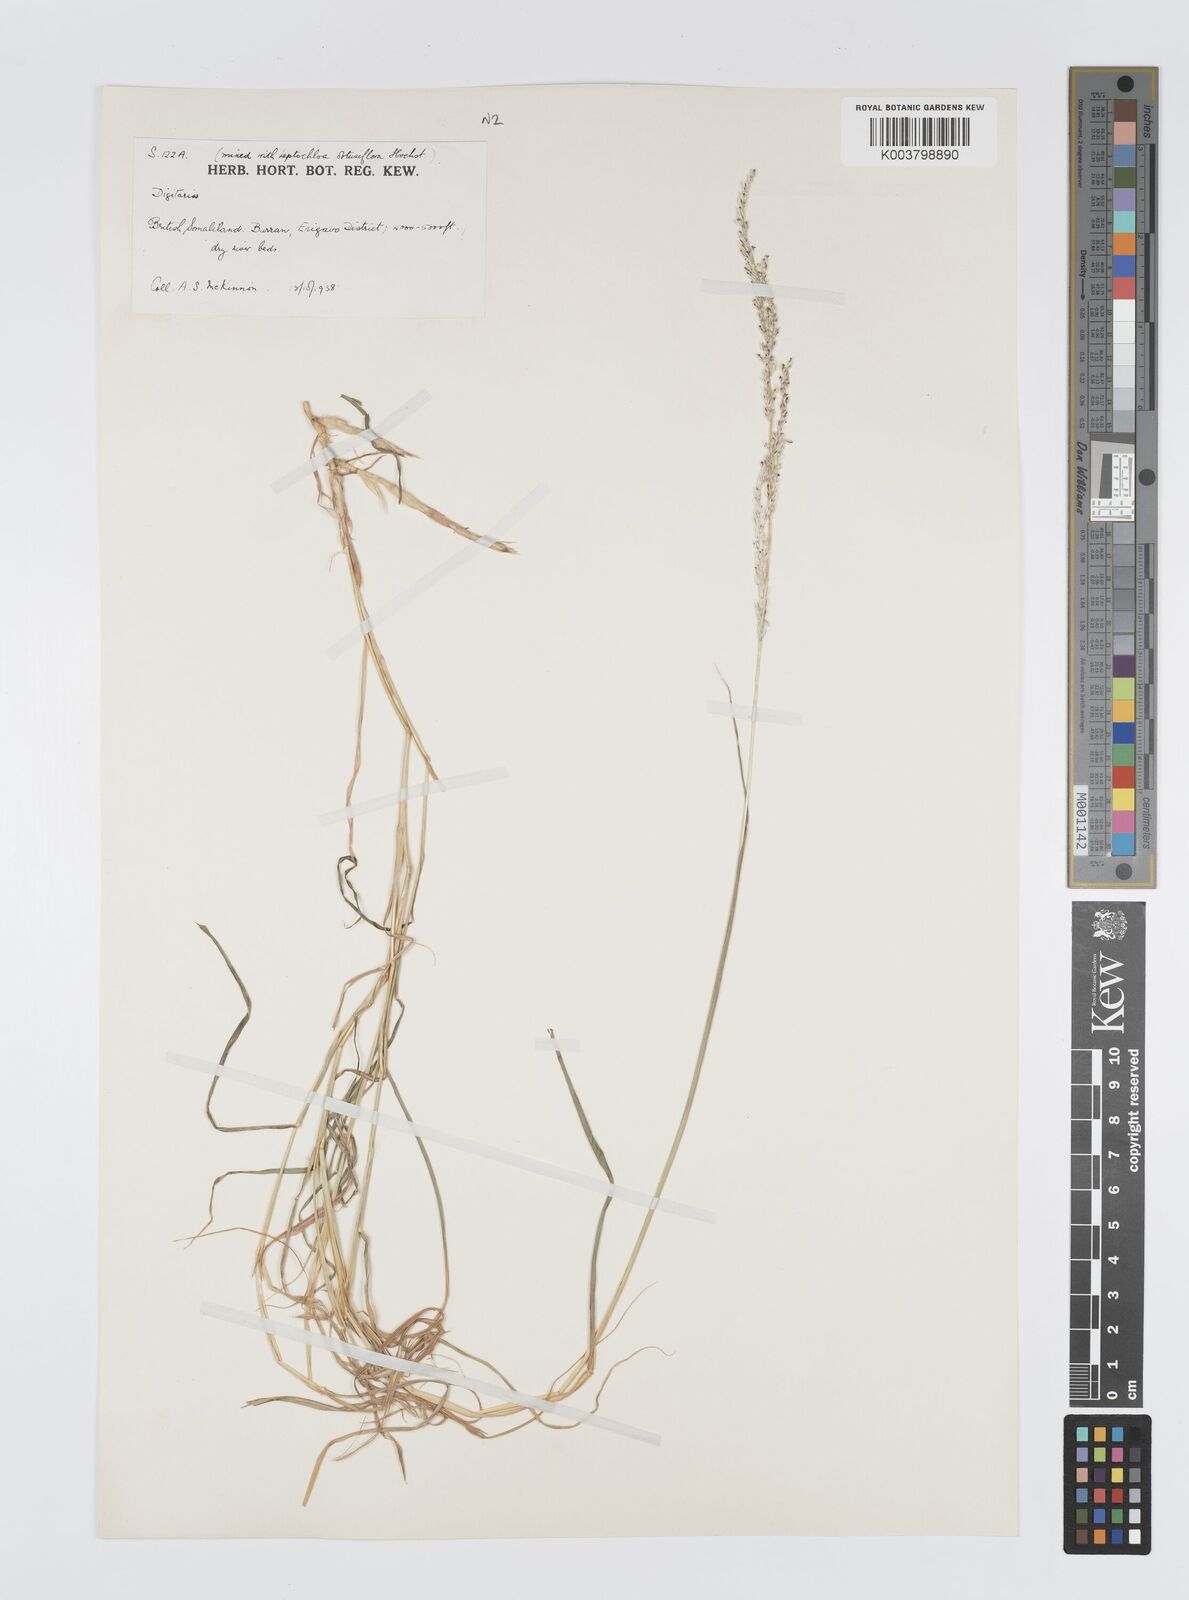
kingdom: Plantae
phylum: Tracheophyta
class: Liliopsida
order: Poales
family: Poaceae
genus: Digitaria
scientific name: Digitaria rivae
